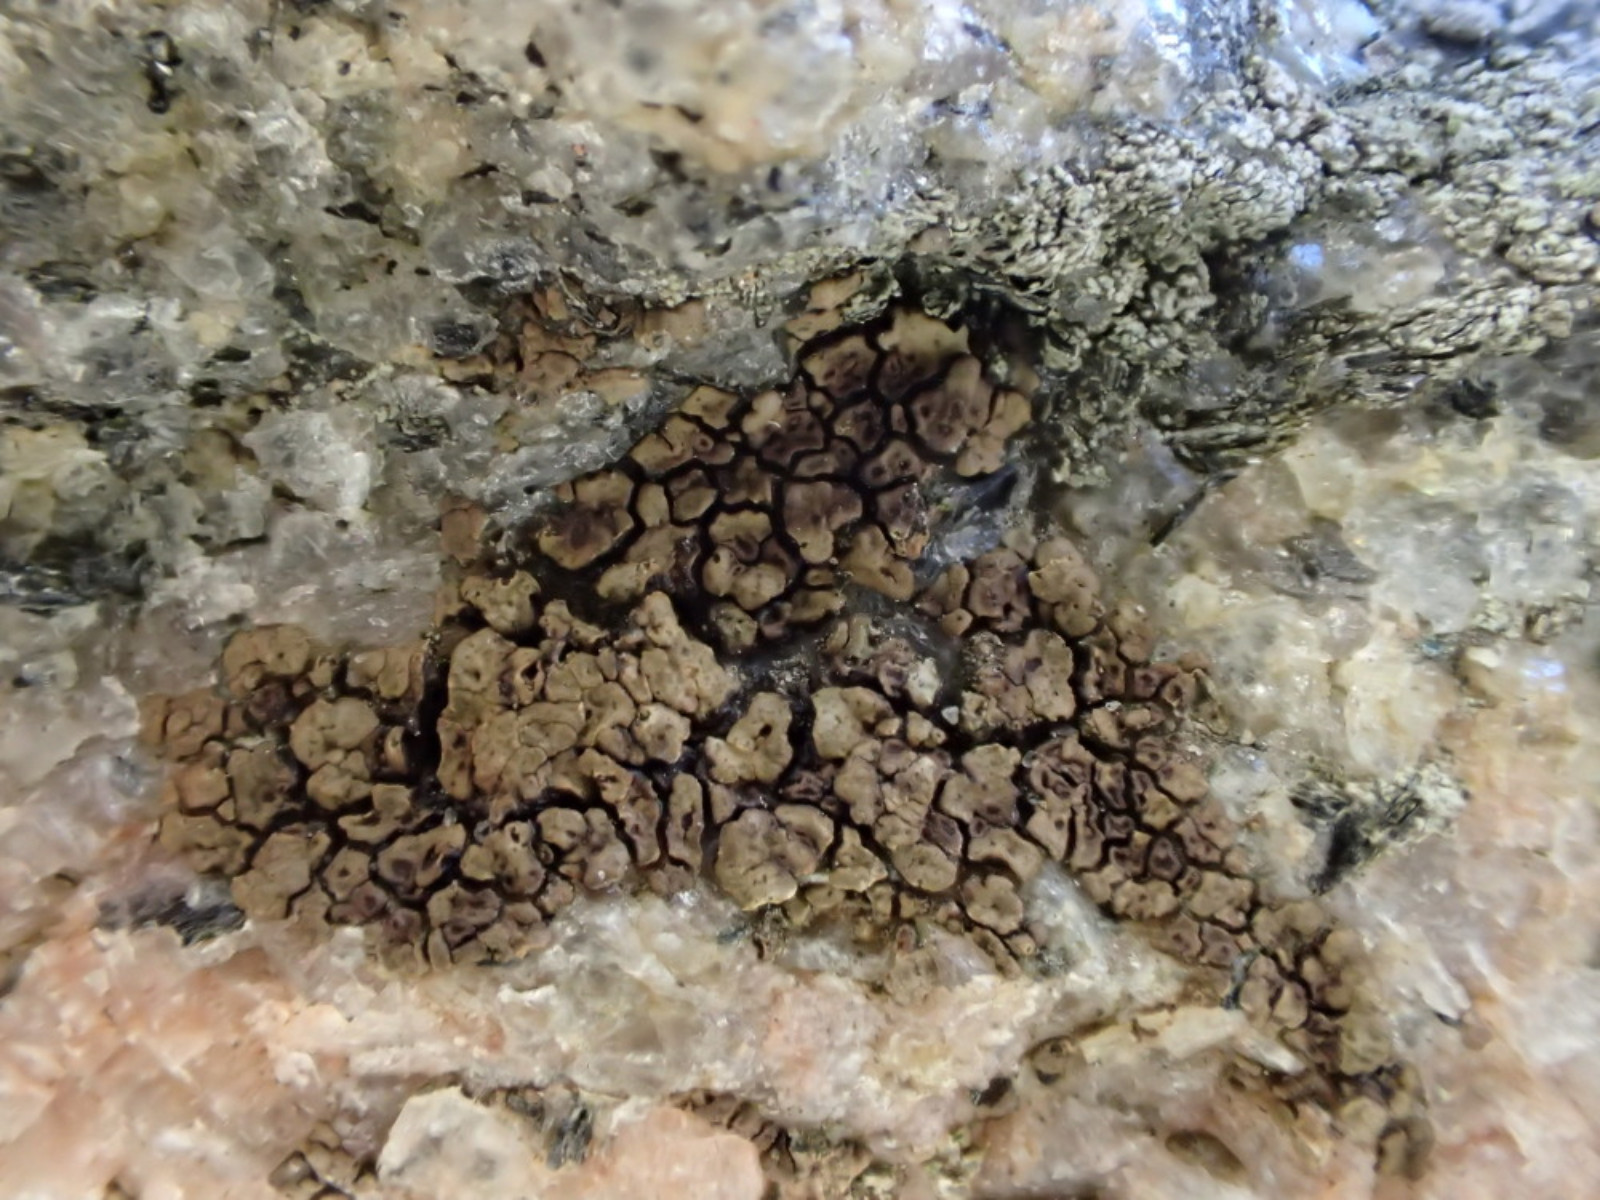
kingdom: Fungi
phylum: Ascomycota
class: Lecanoromycetes
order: Acarosporales
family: Acarosporaceae
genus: Acarospora
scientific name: Acarospora fuscata
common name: brun småsporelav
